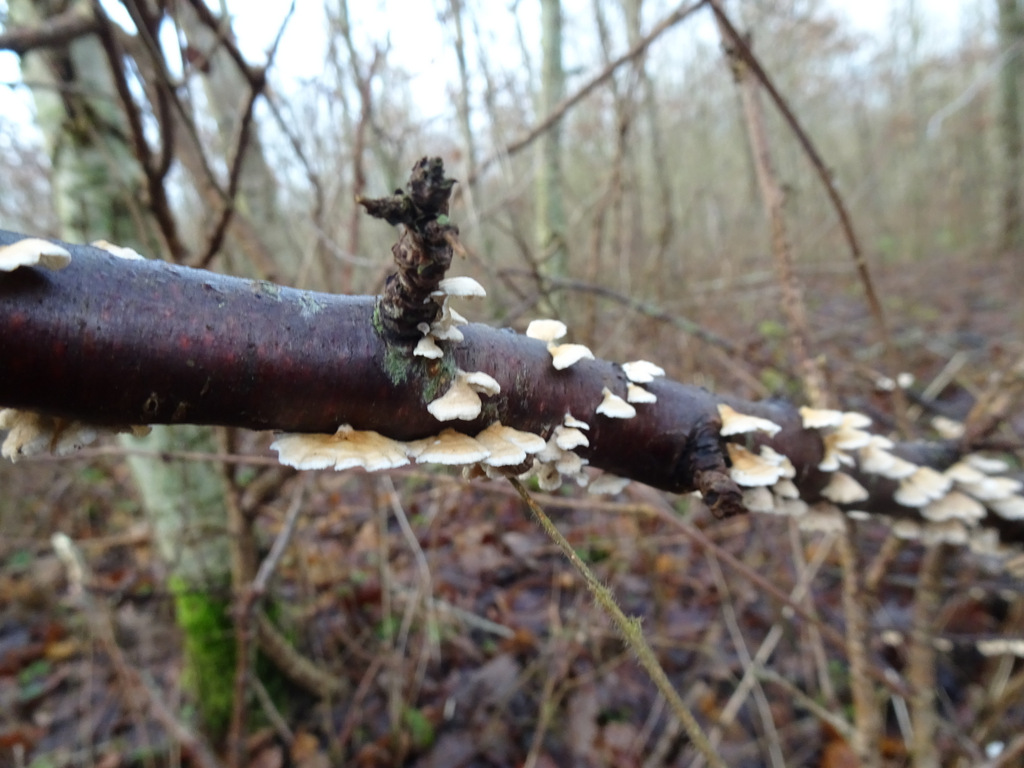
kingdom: Fungi
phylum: Basidiomycota
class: Agaricomycetes
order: Amylocorticiales
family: Amylocorticiaceae
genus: Plicaturopsis
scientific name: Plicaturopsis crispa
